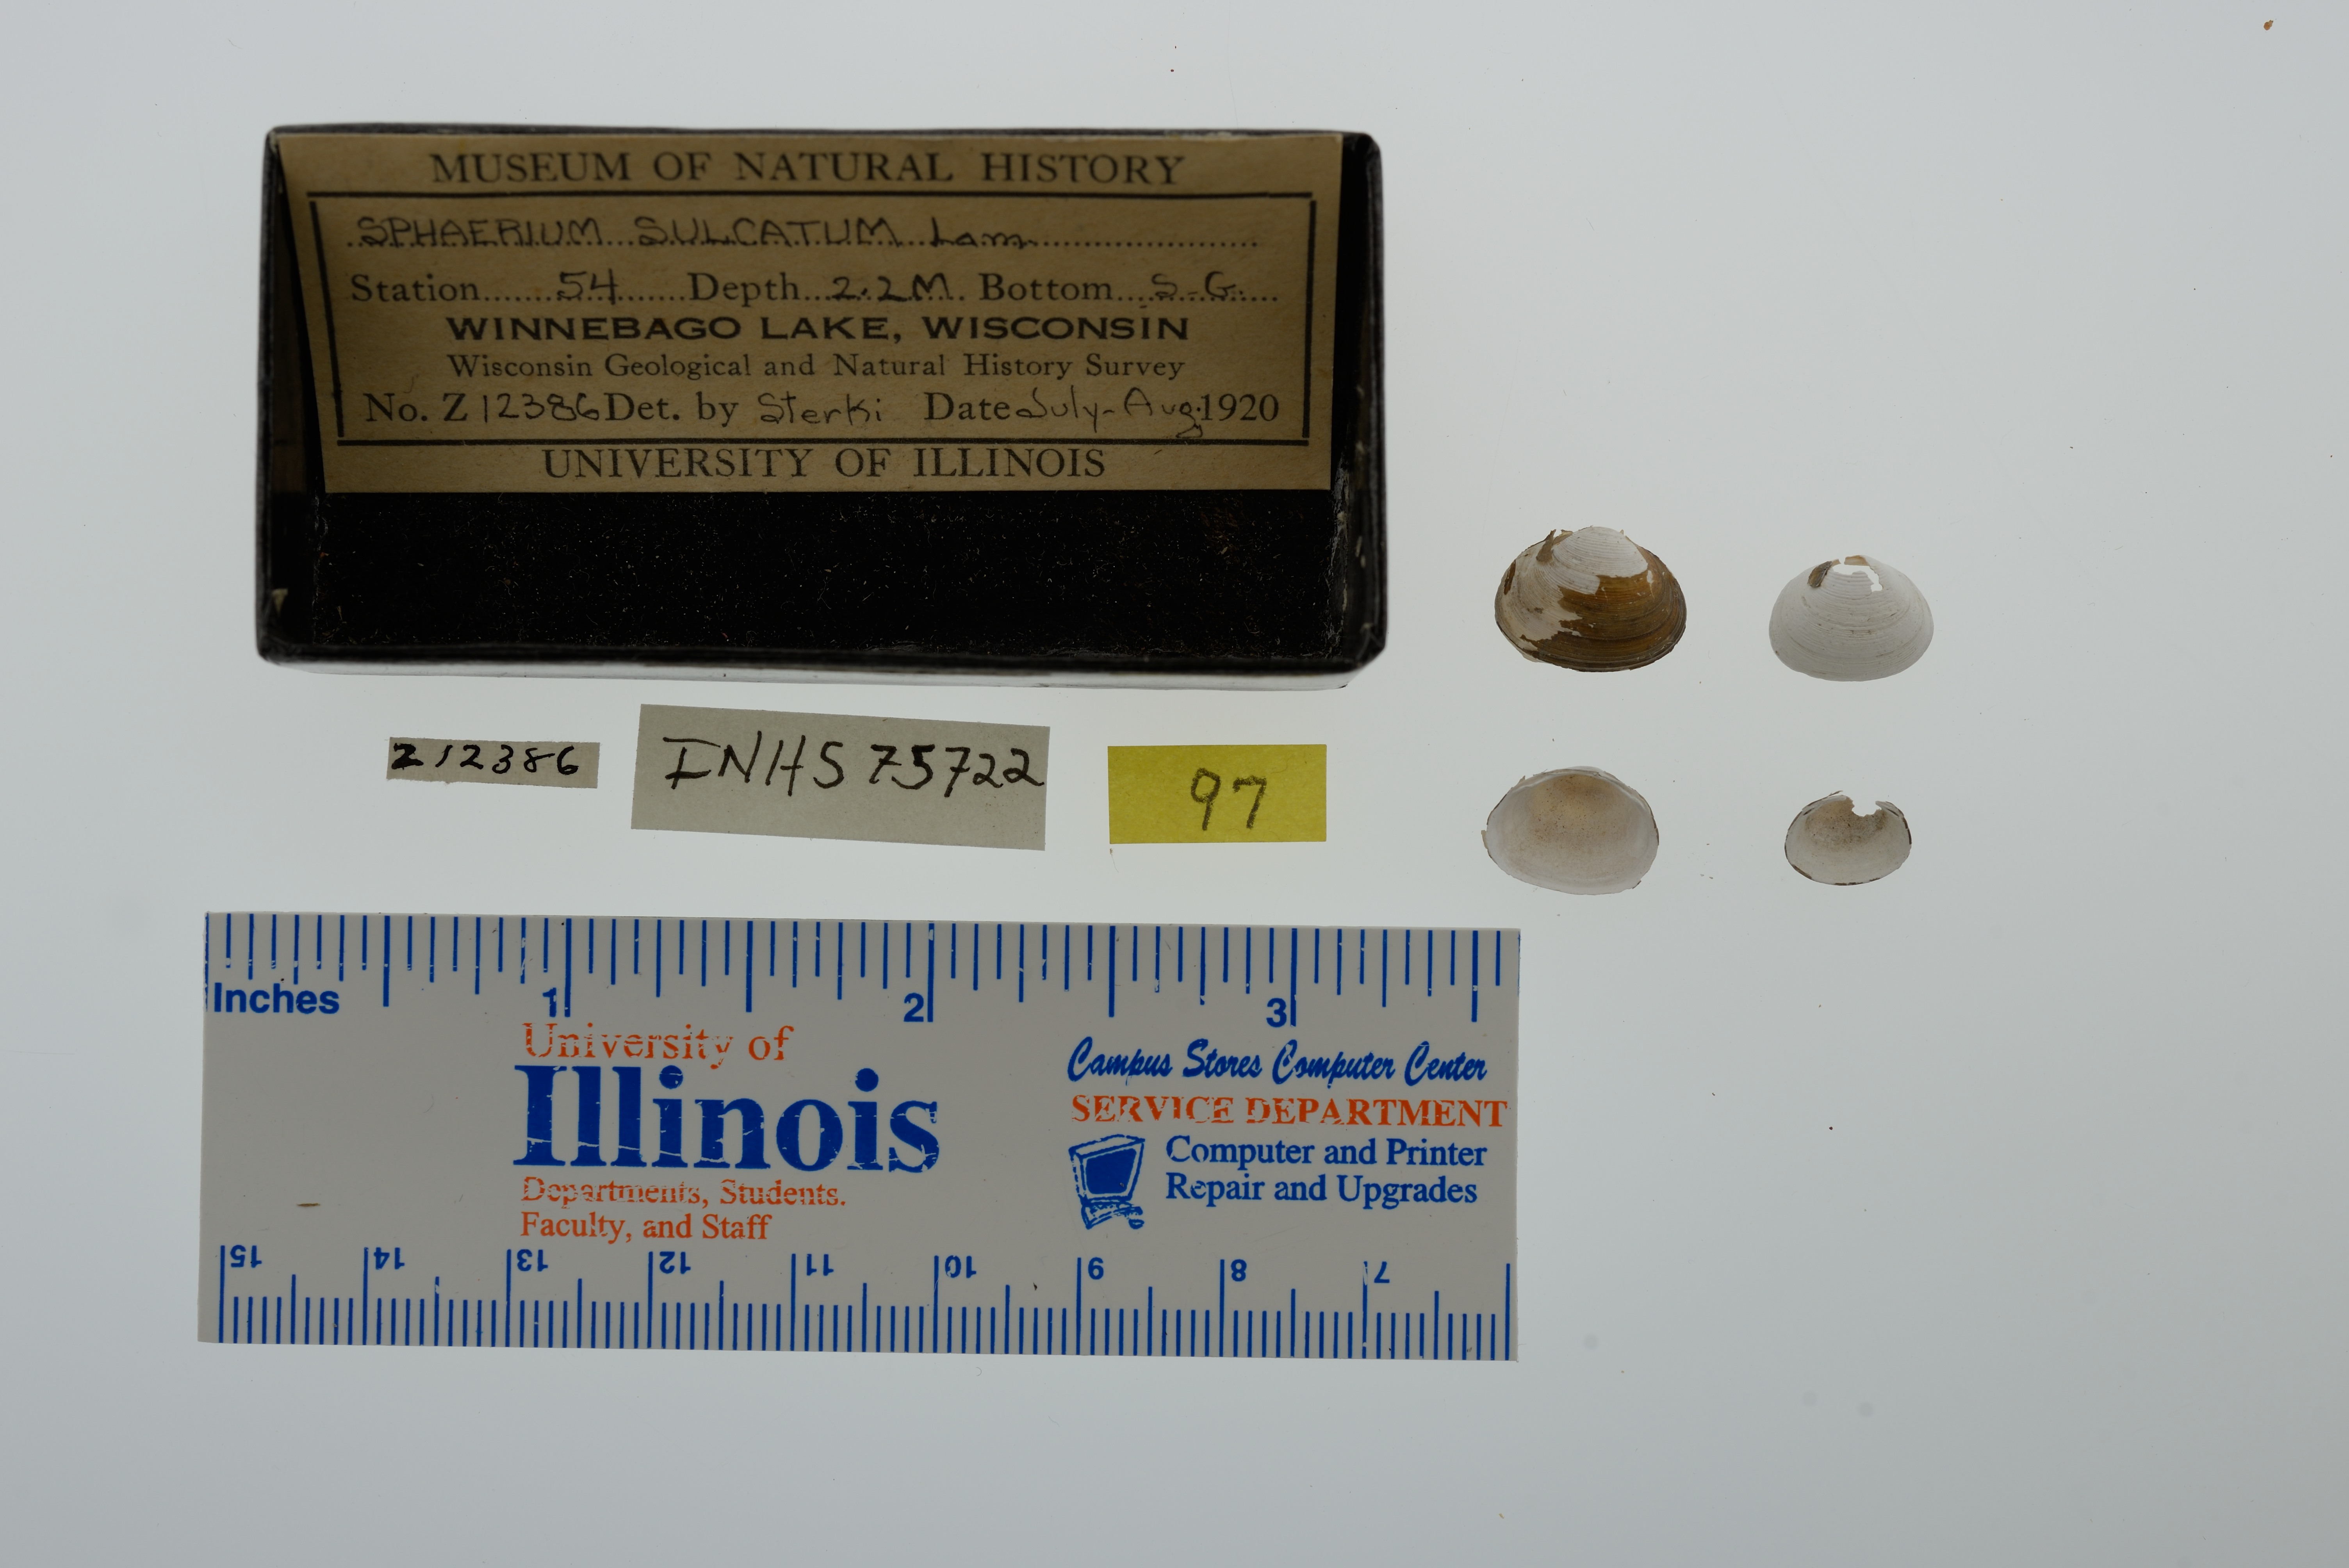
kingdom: Animalia
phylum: Mollusca
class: Bivalvia
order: Sphaeriida
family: Sphaeriidae
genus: Sphaerium
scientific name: Sphaerium simile
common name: Grooved fingernailclam
